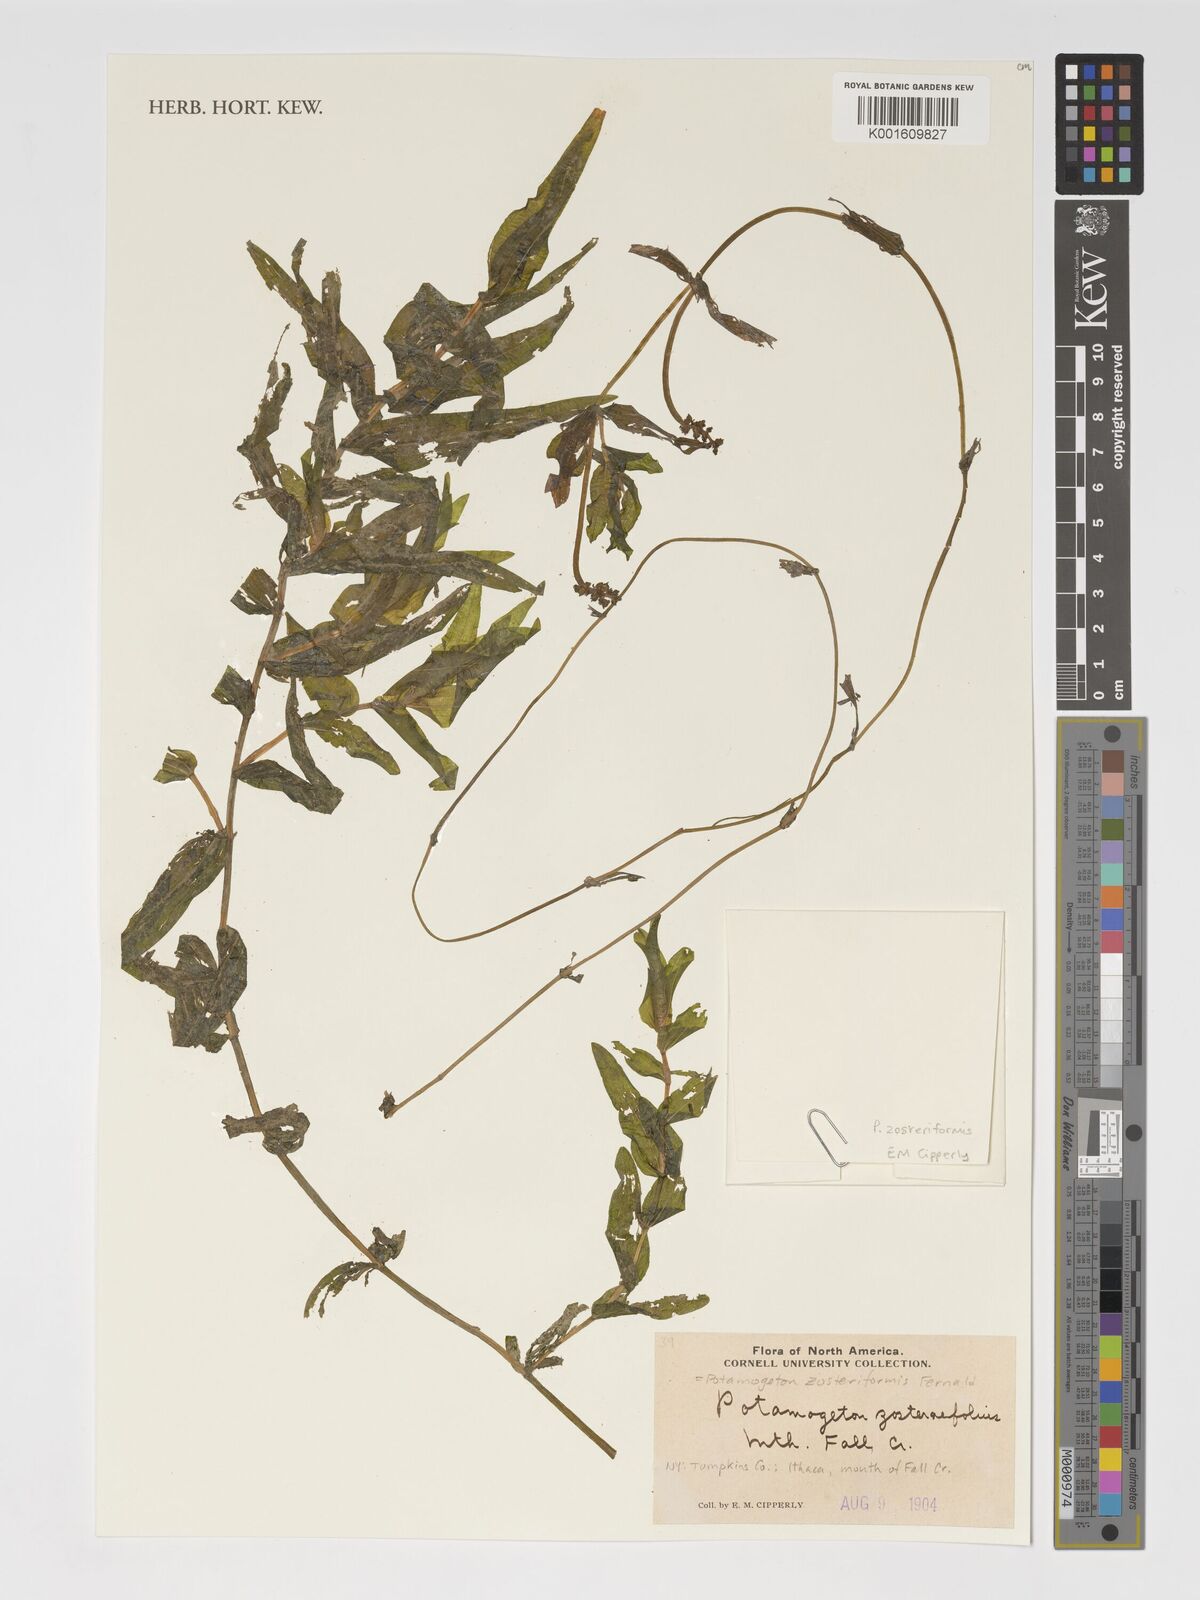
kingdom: Plantae
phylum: Tracheophyta
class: Liliopsida
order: Alismatales
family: Potamogetonaceae
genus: Potamogeton
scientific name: Potamogeton zosteriformis
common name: Eelgrass pondweed
